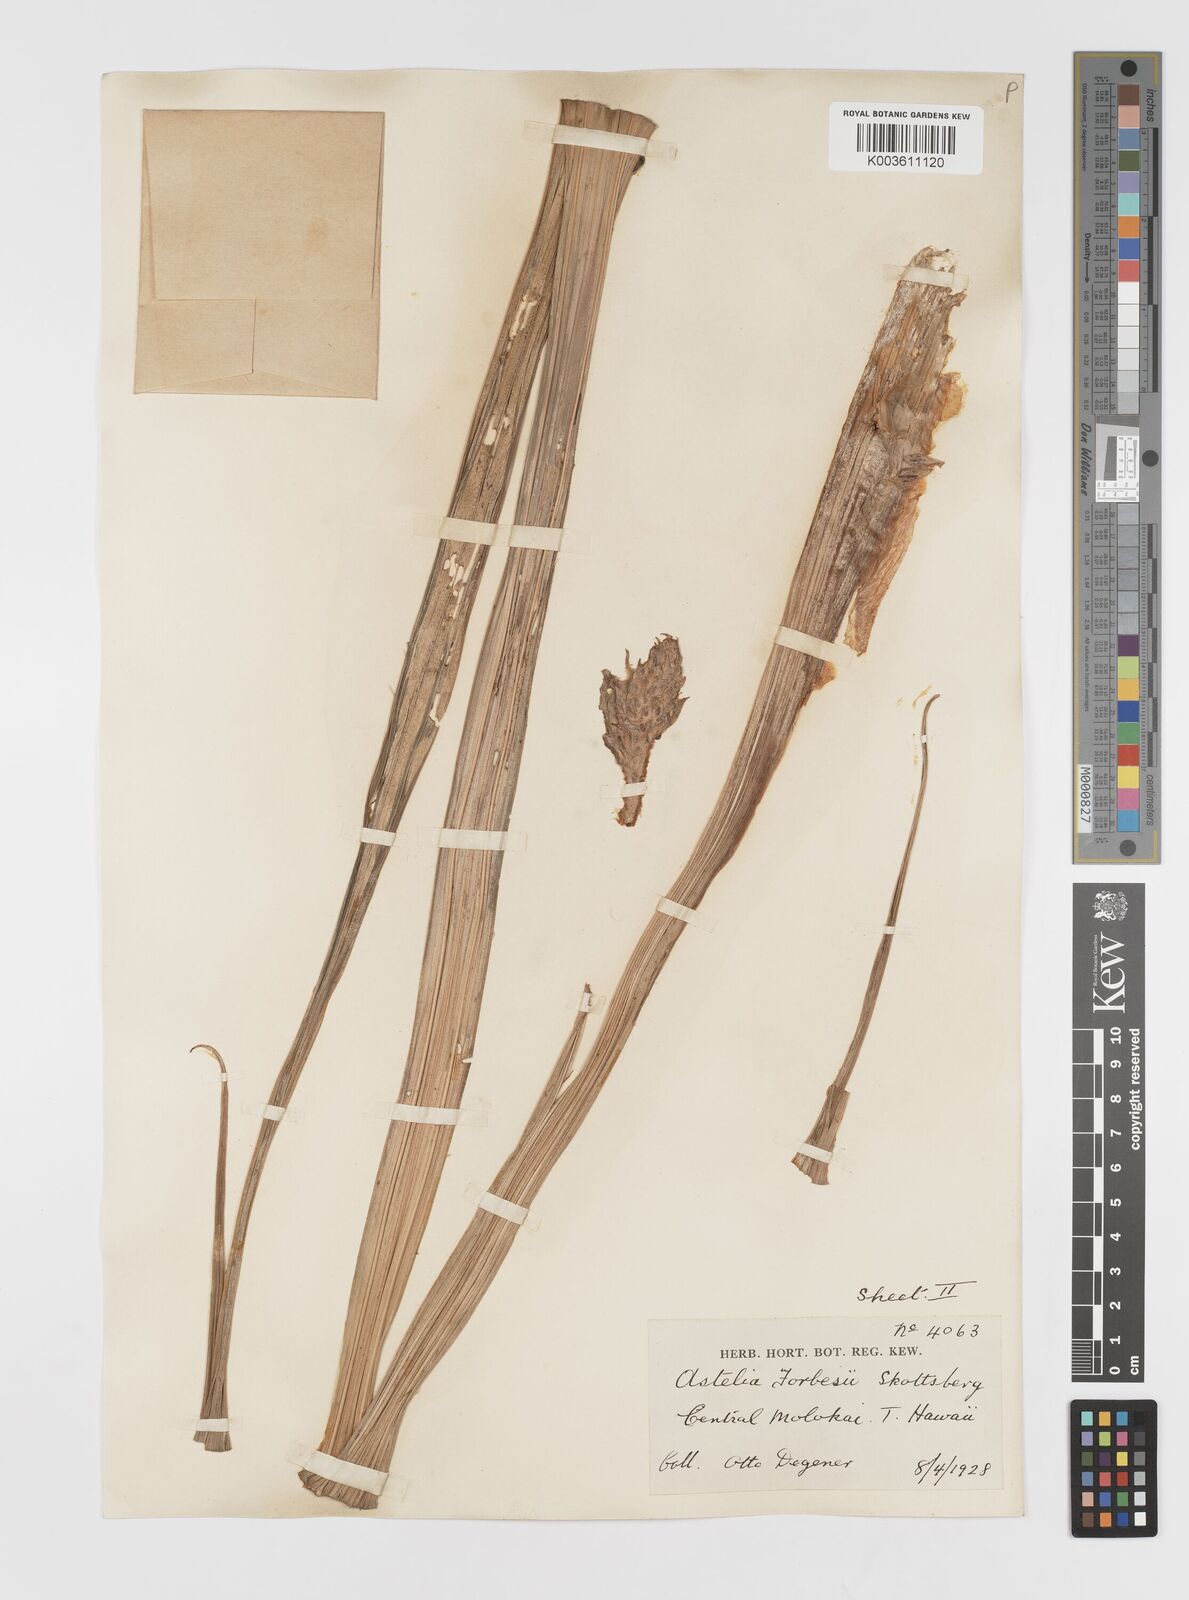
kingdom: Plantae
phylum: Tracheophyta
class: Liliopsida
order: Asparagales
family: Asteliaceae
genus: Astelia
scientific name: Astelia menziesiana
